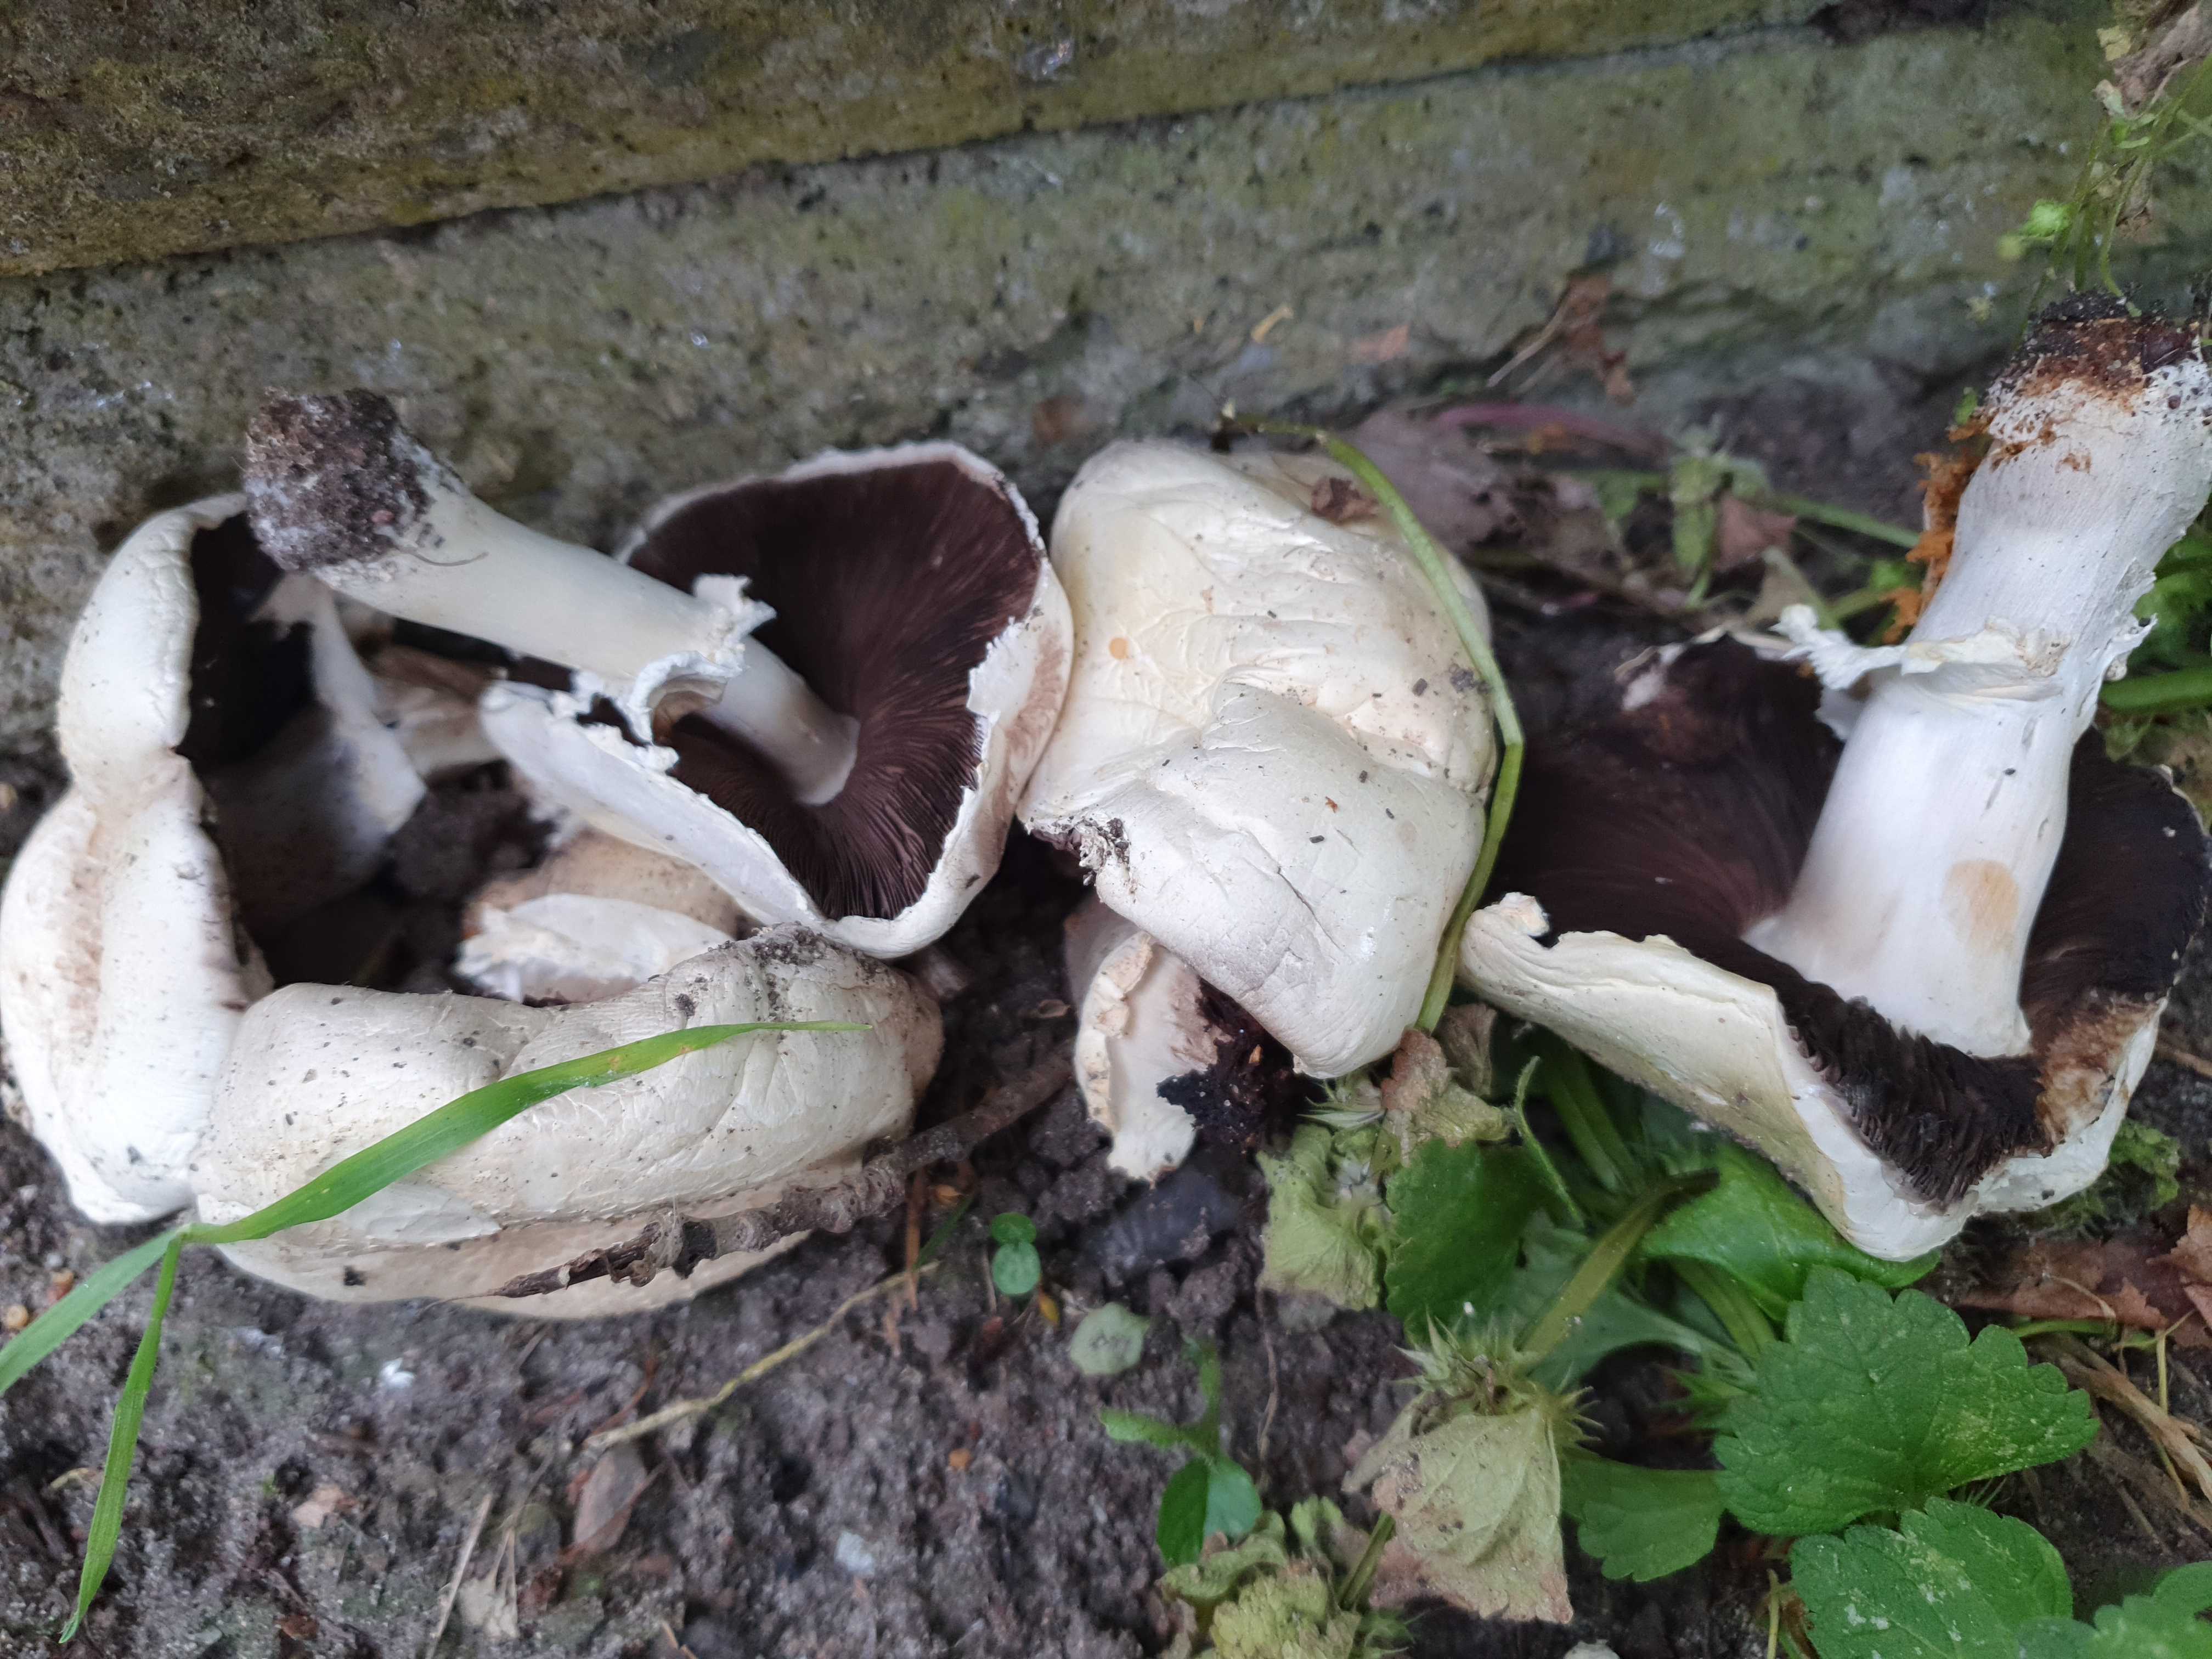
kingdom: Fungi
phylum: Basidiomycota
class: Agaricomycetes
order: Agaricales
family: Agaricaceae
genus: Agaricus
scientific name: Agaricus
